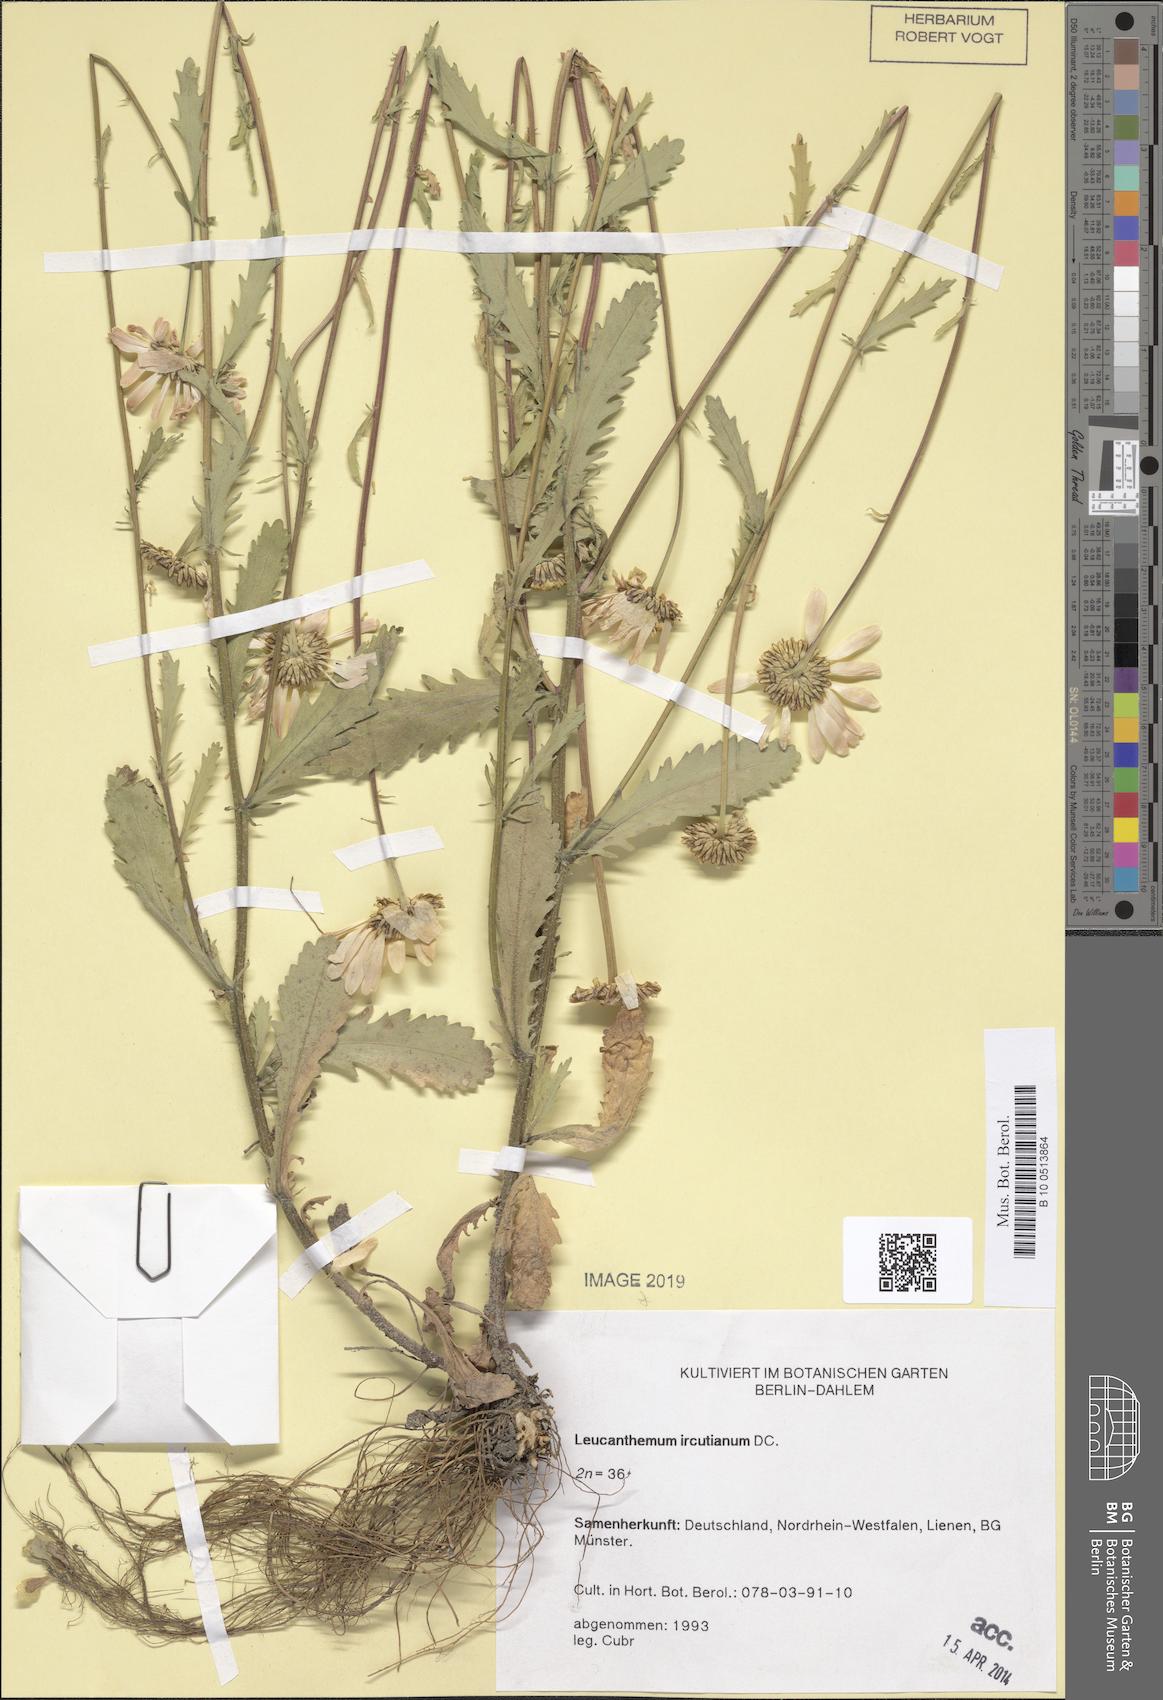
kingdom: Plantae
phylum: Tracheophyta
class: Magnoliopsida
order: Asterales
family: Asteraceae
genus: Leucanthemum
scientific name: Leucanthemum ircutianum
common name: Daisy
